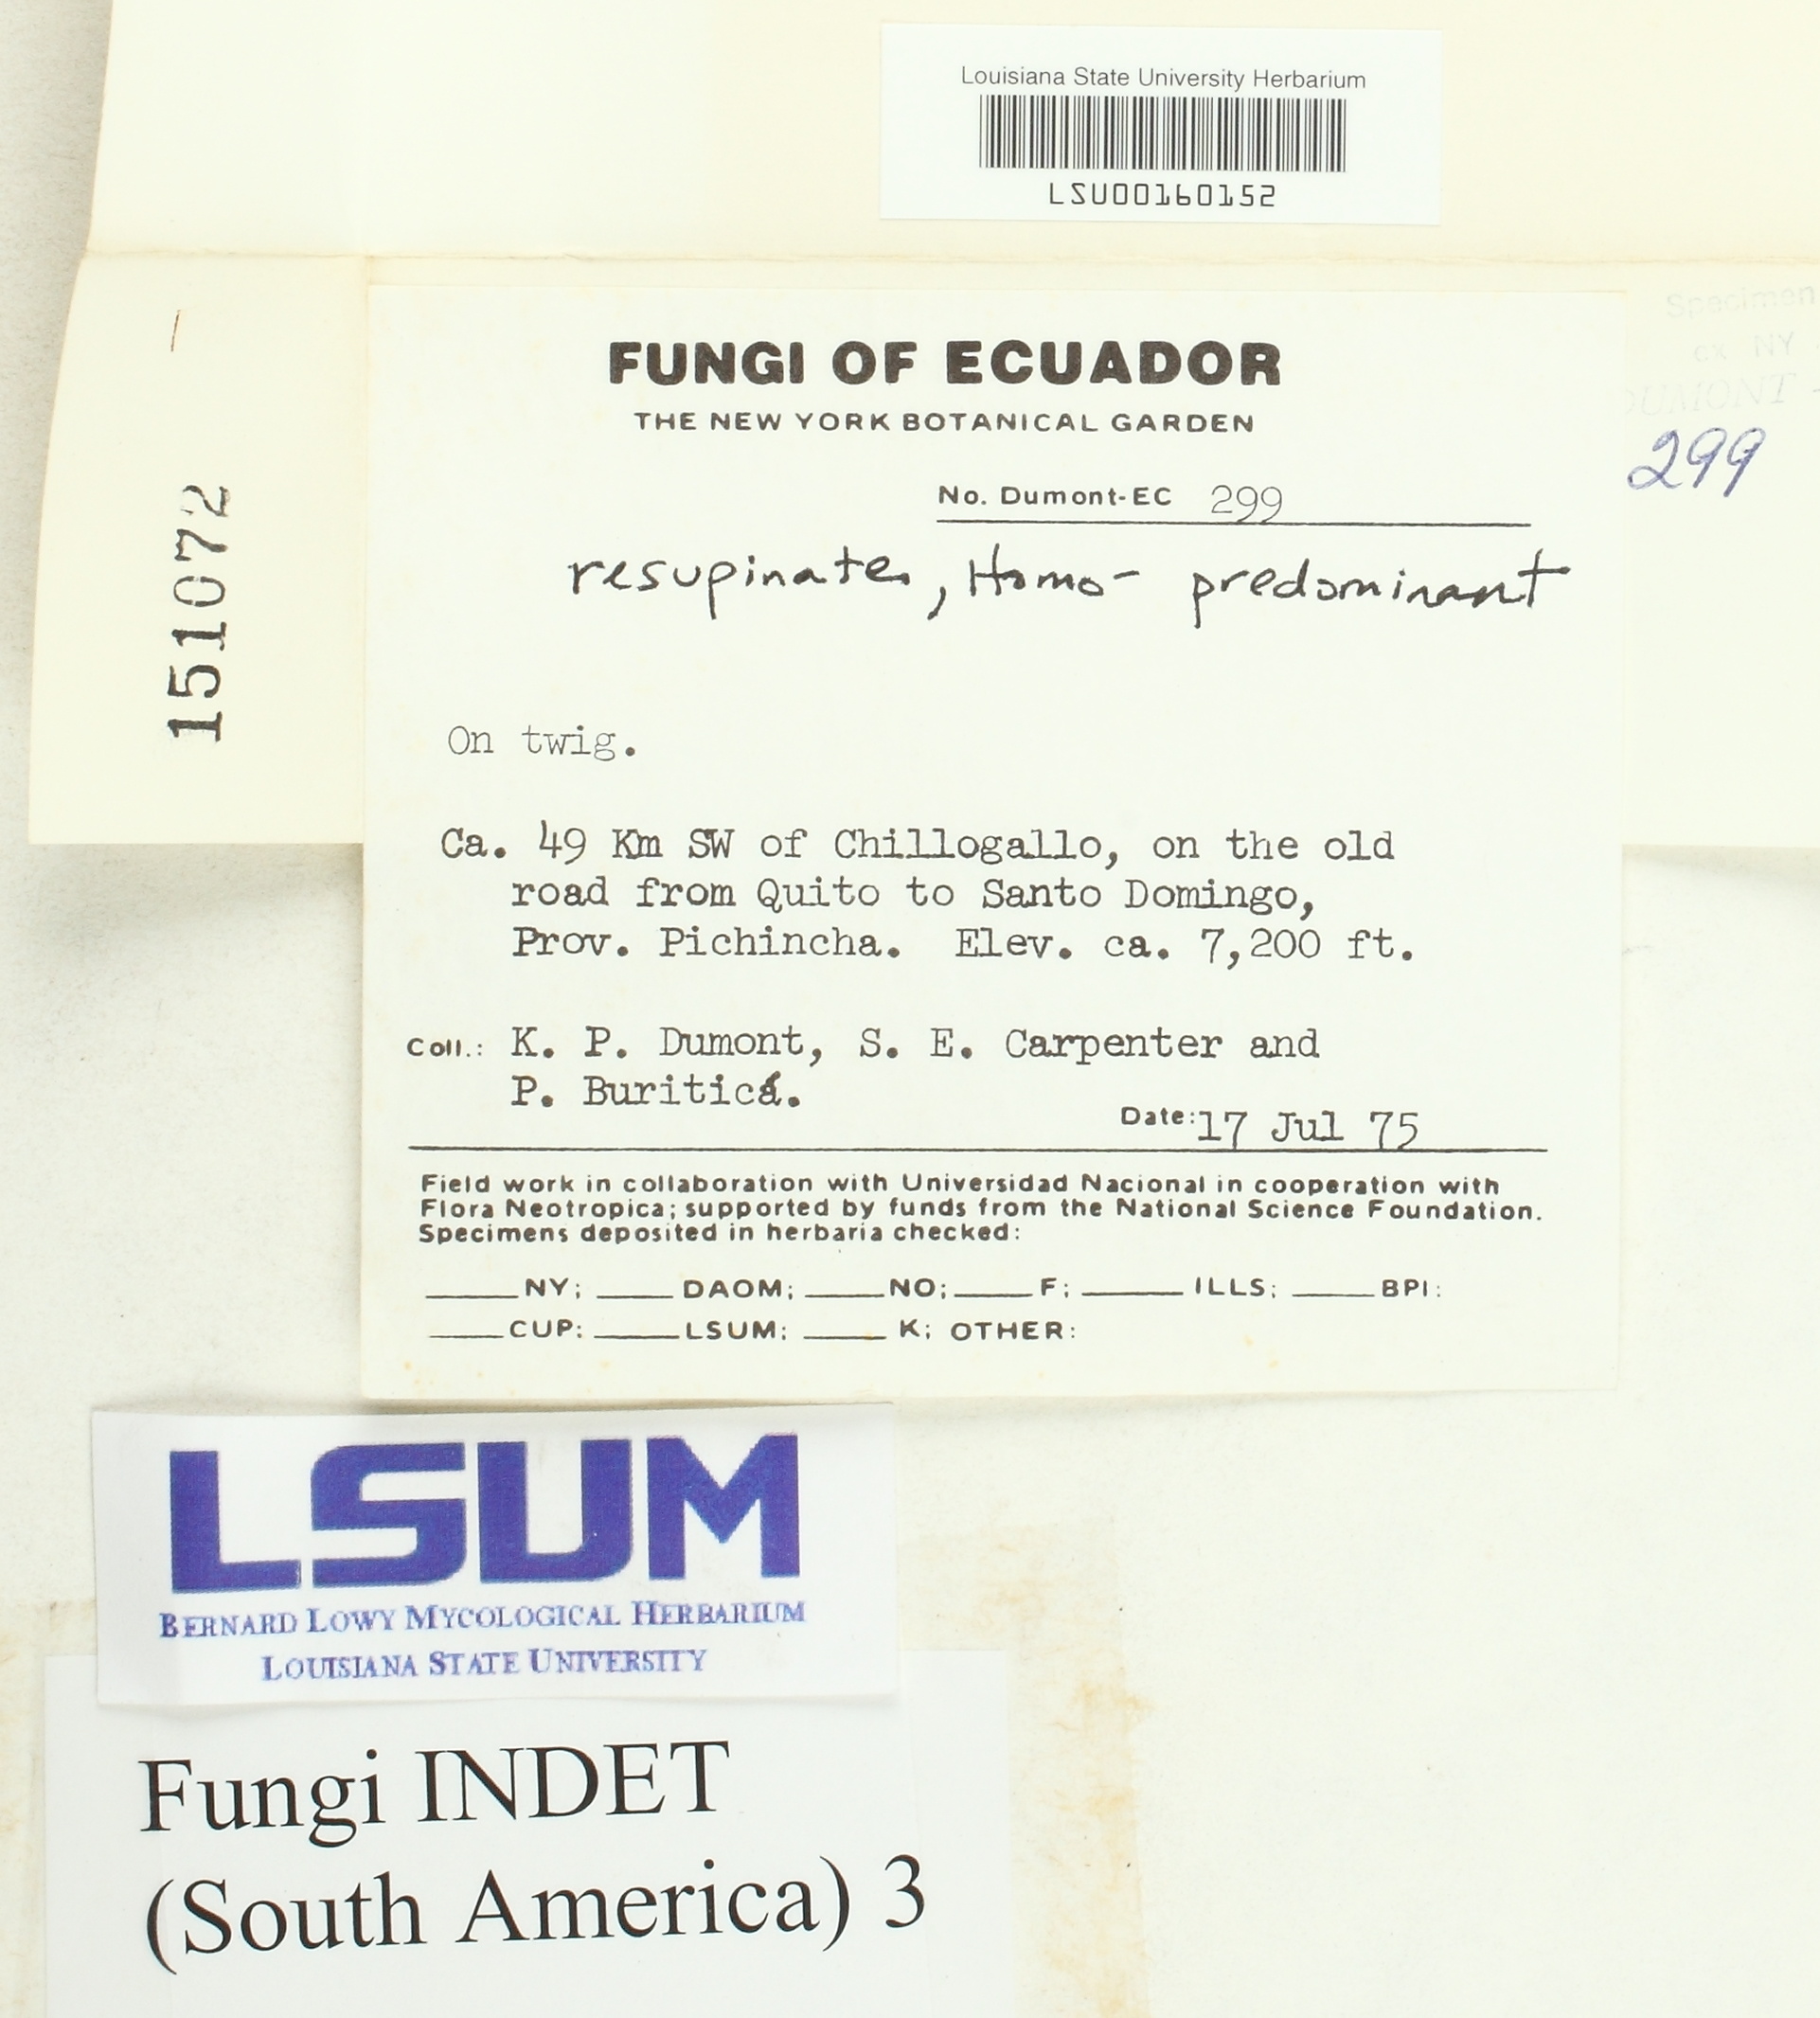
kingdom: Fungi
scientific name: Fungi
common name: Fungi
